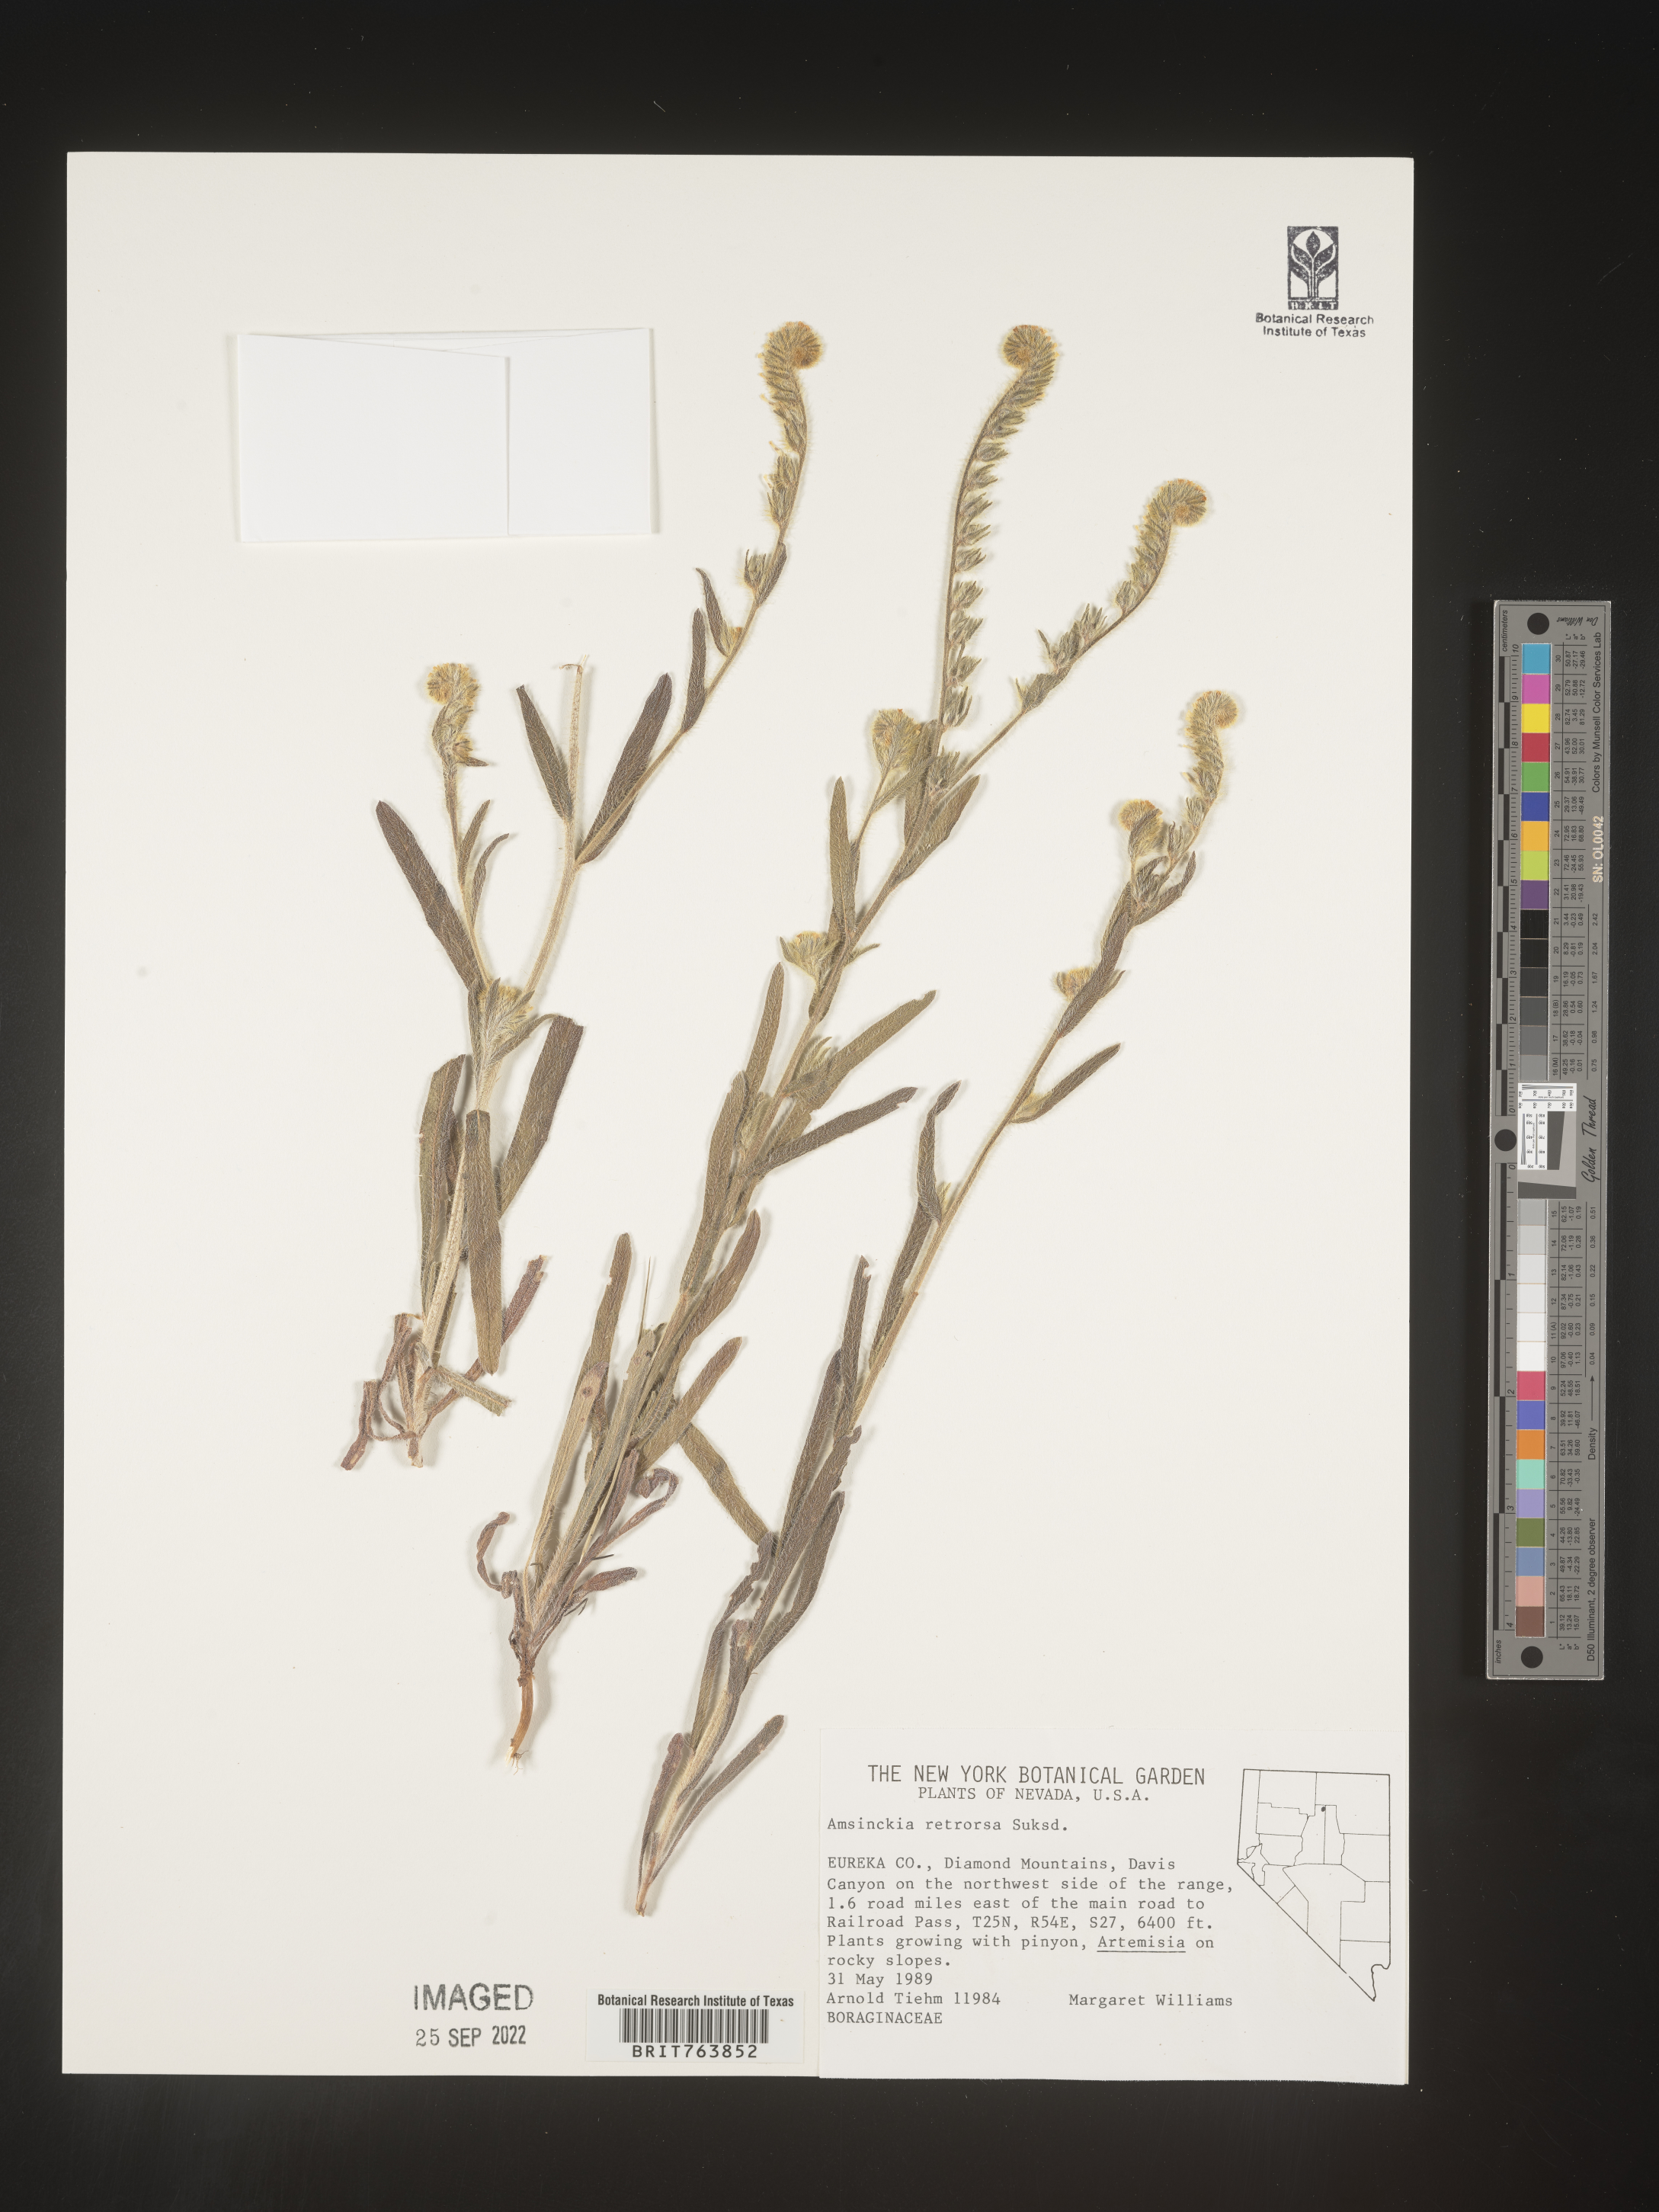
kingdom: Plantae
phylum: Tracheophyta
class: Magnoliopsida
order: Boraginales
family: Boraginaceae
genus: Amsinckia
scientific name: Amsinckia
